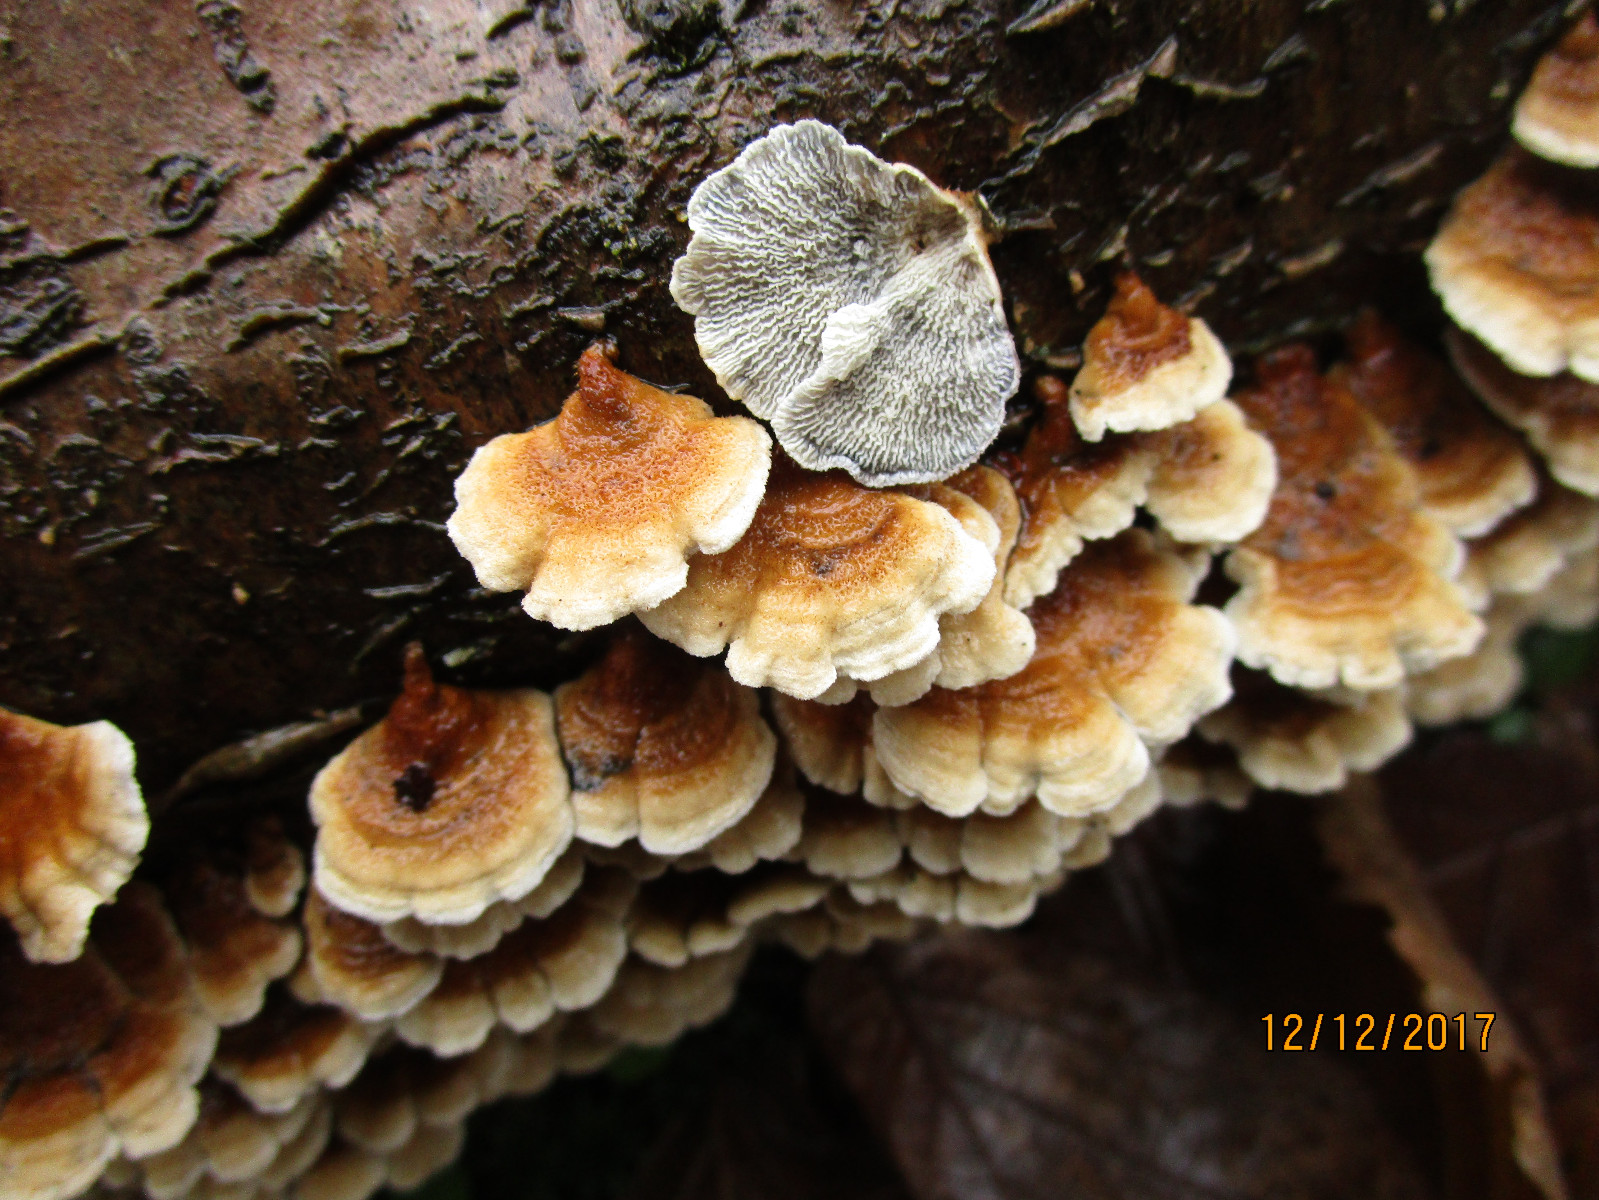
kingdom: Fungi
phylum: Basidiomycota
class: Agaricomycetes
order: Amylocorticiales
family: Amylocorticiaceae
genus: Plicaturopsis
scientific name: Plicaturopsis crispa
